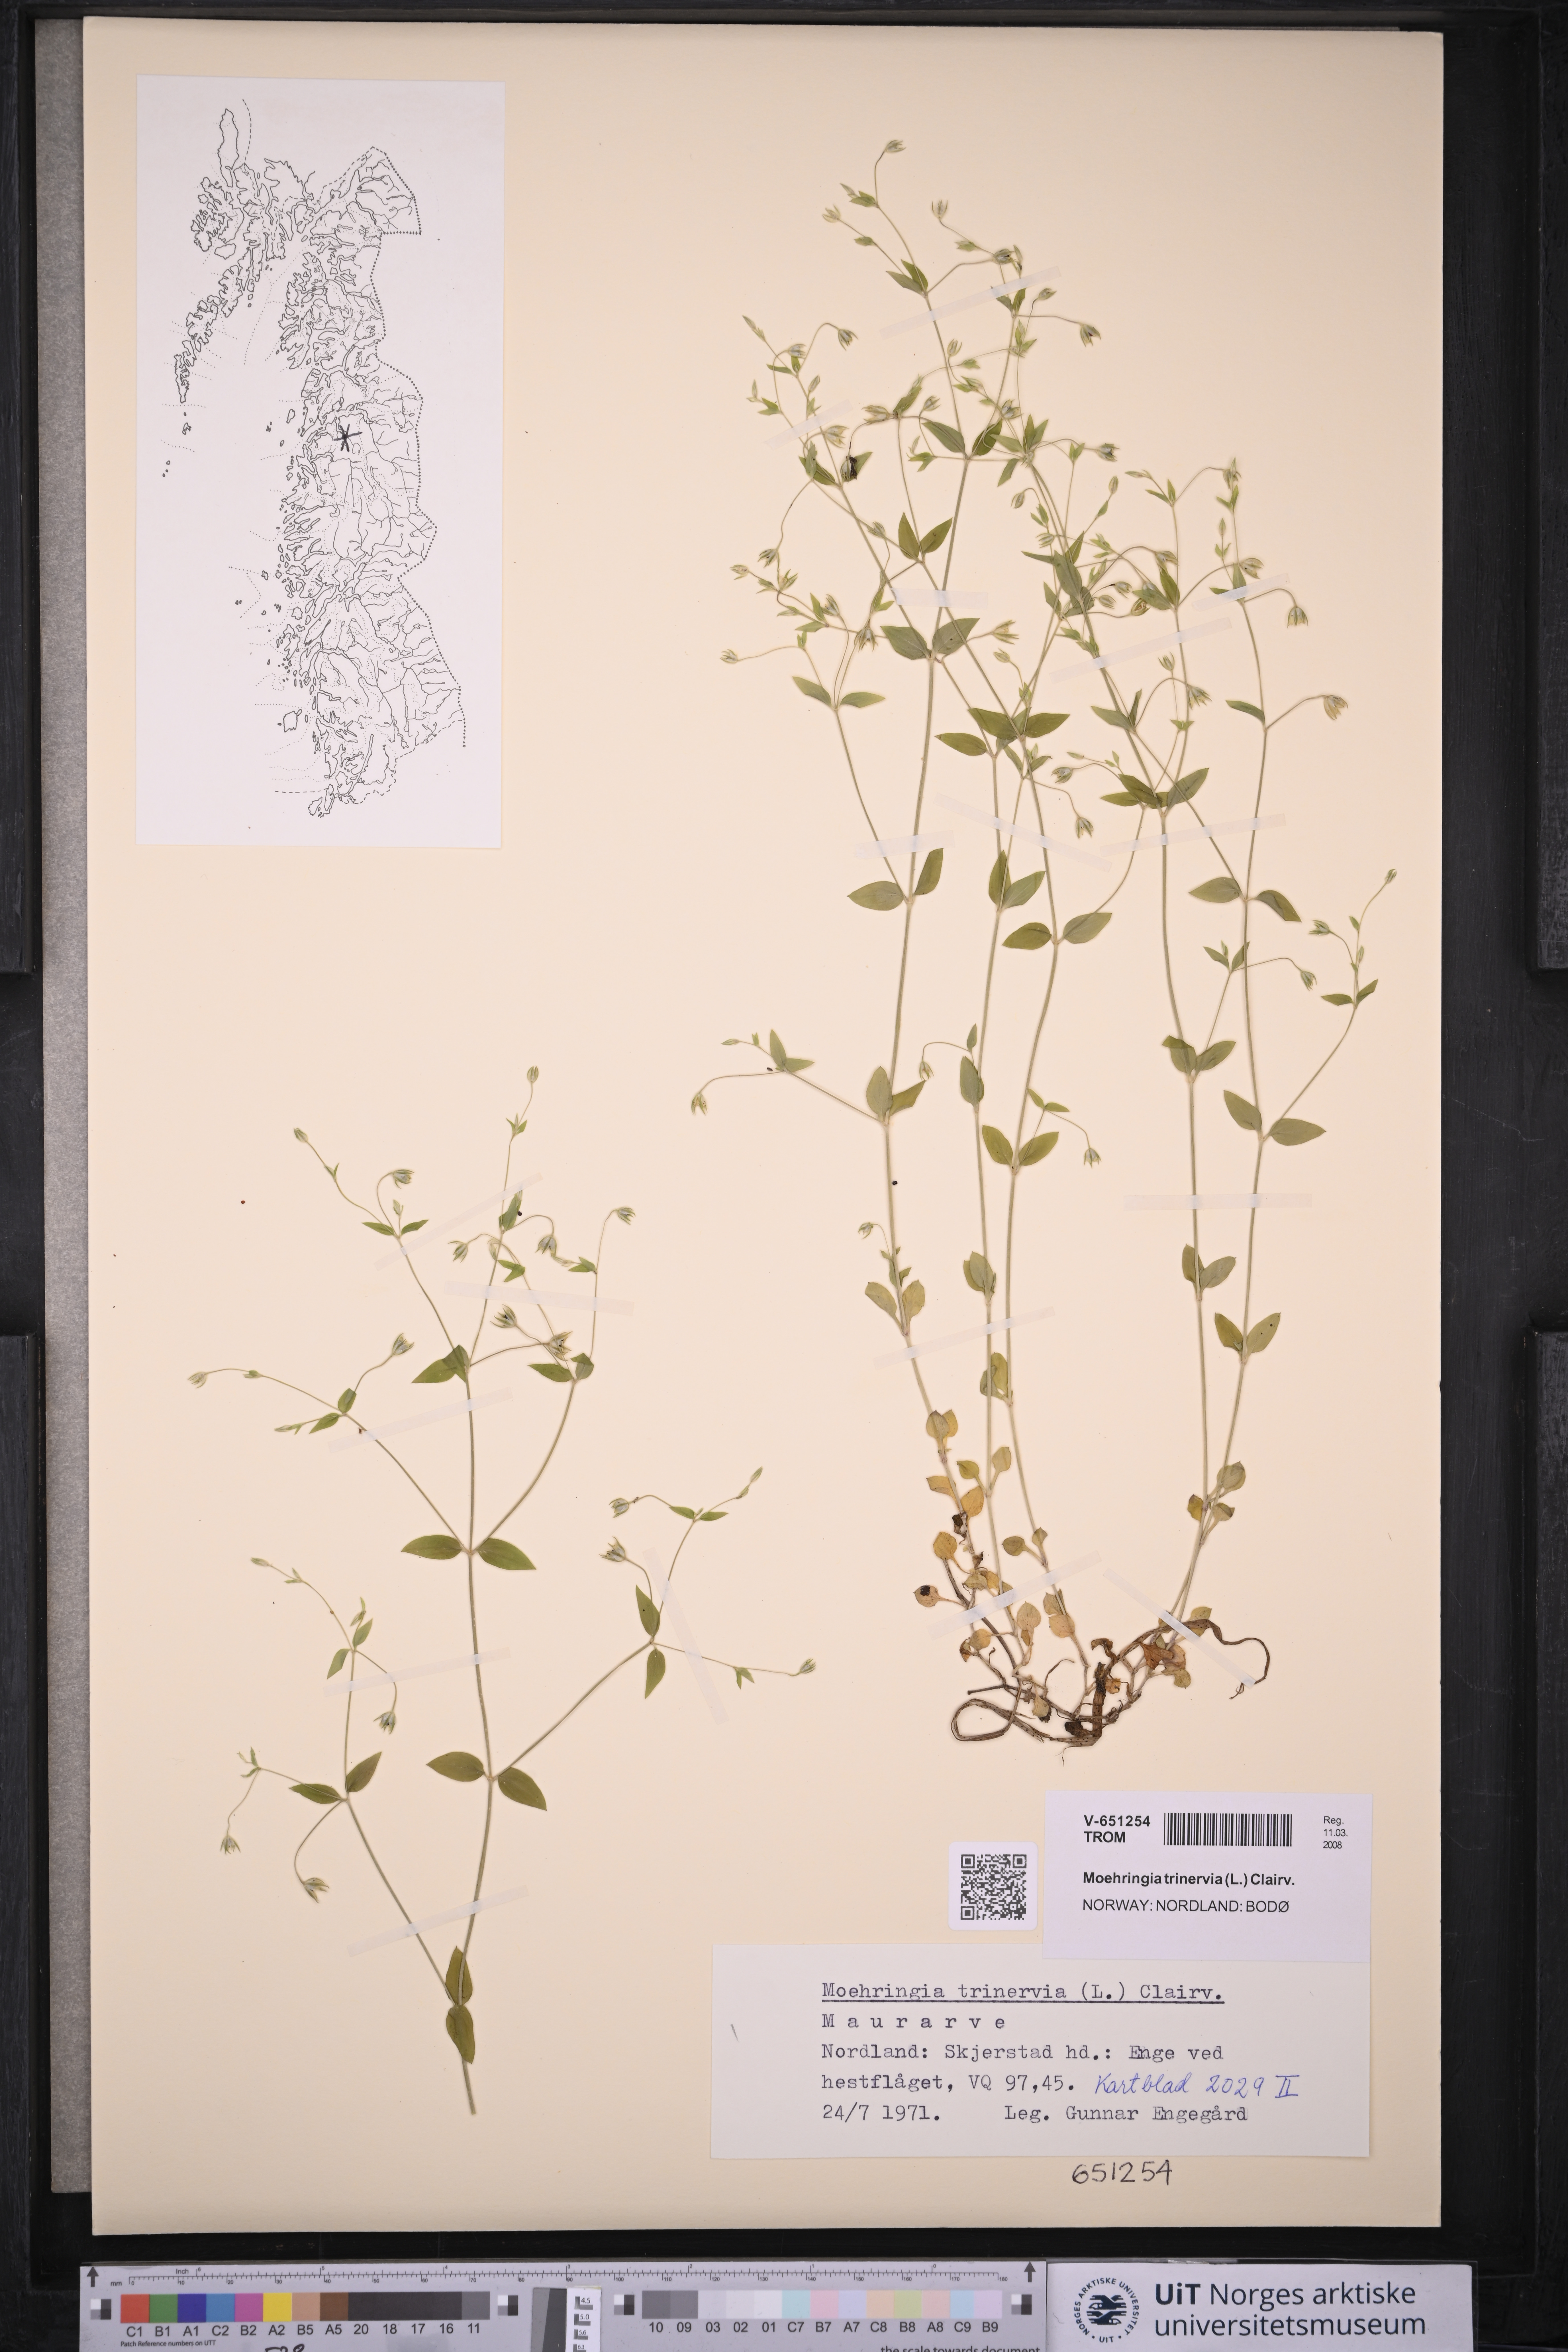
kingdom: Plantae
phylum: Tracheophyta
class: Magnoliopsida
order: Caryophyllales
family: Caryophyllaceae
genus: Moehringia
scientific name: Moehringia trinervia
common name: Three-nerved sandwort
